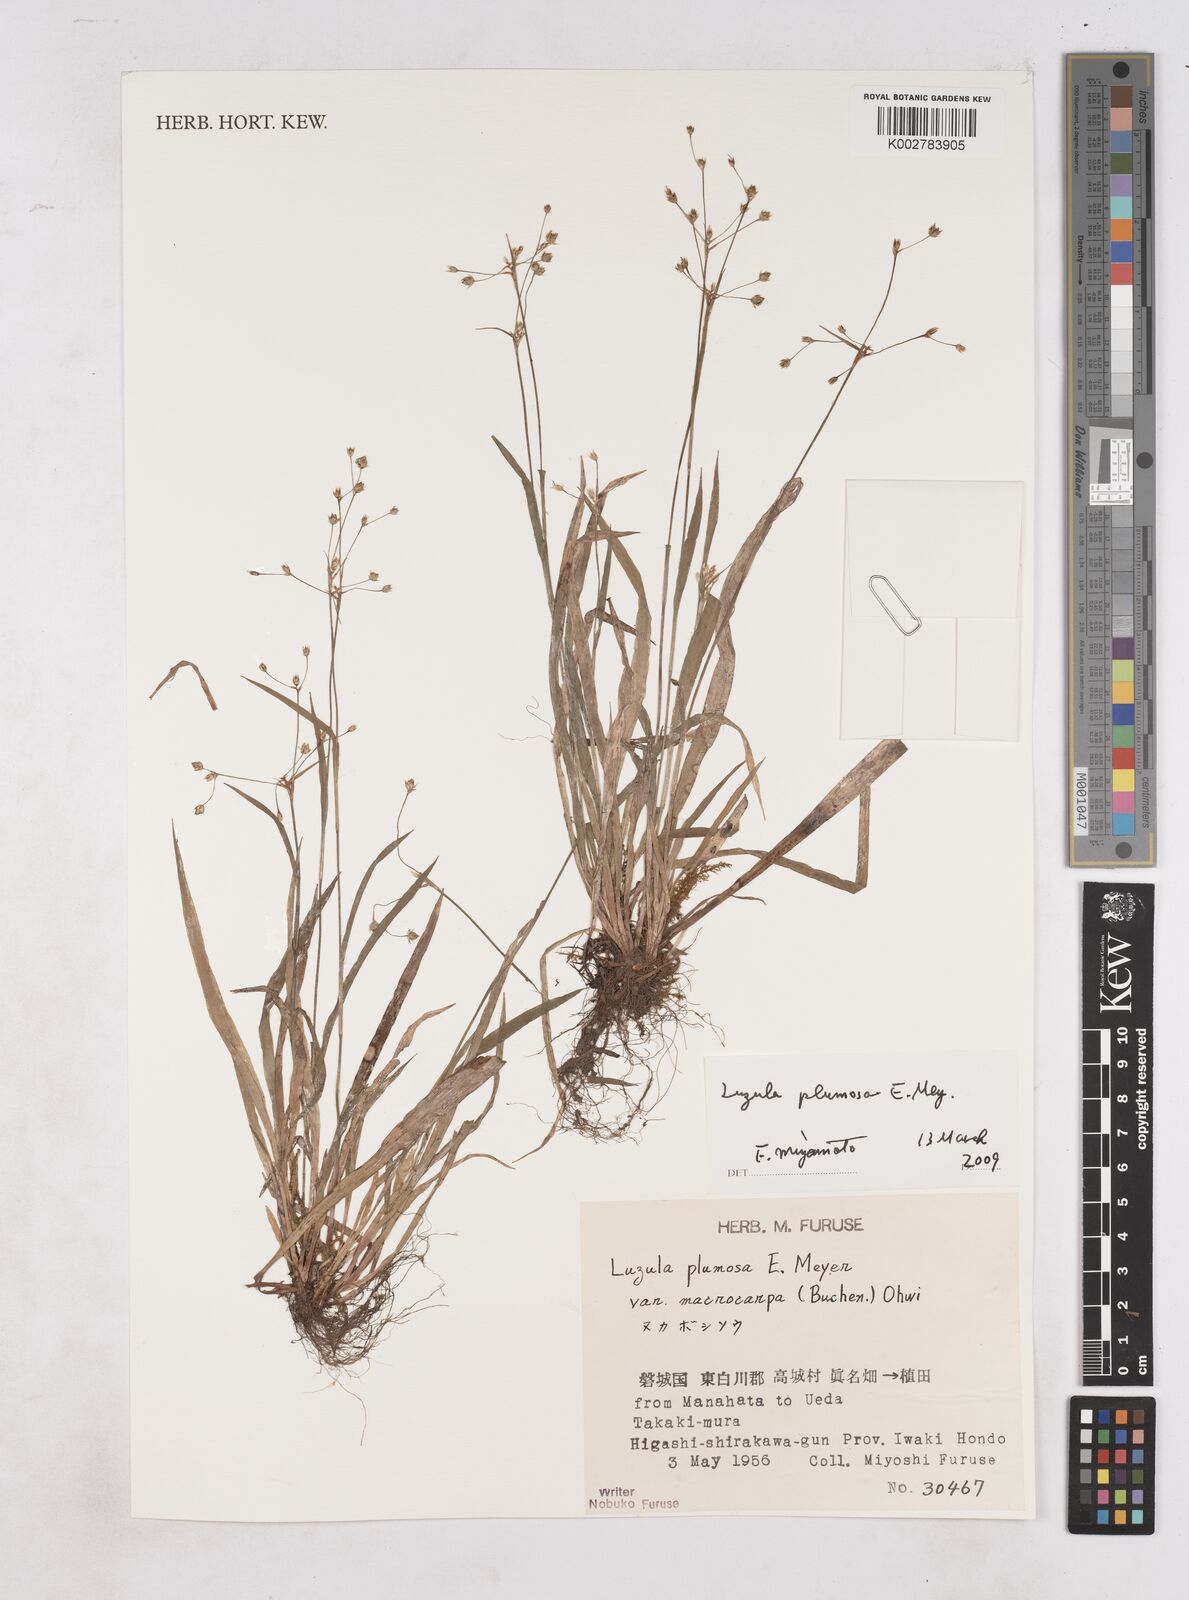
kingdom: Plantae
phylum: Tracheophyta
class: Liliopsida
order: Poales
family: Juncaceae
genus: Luzula
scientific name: Luzula plumosa
